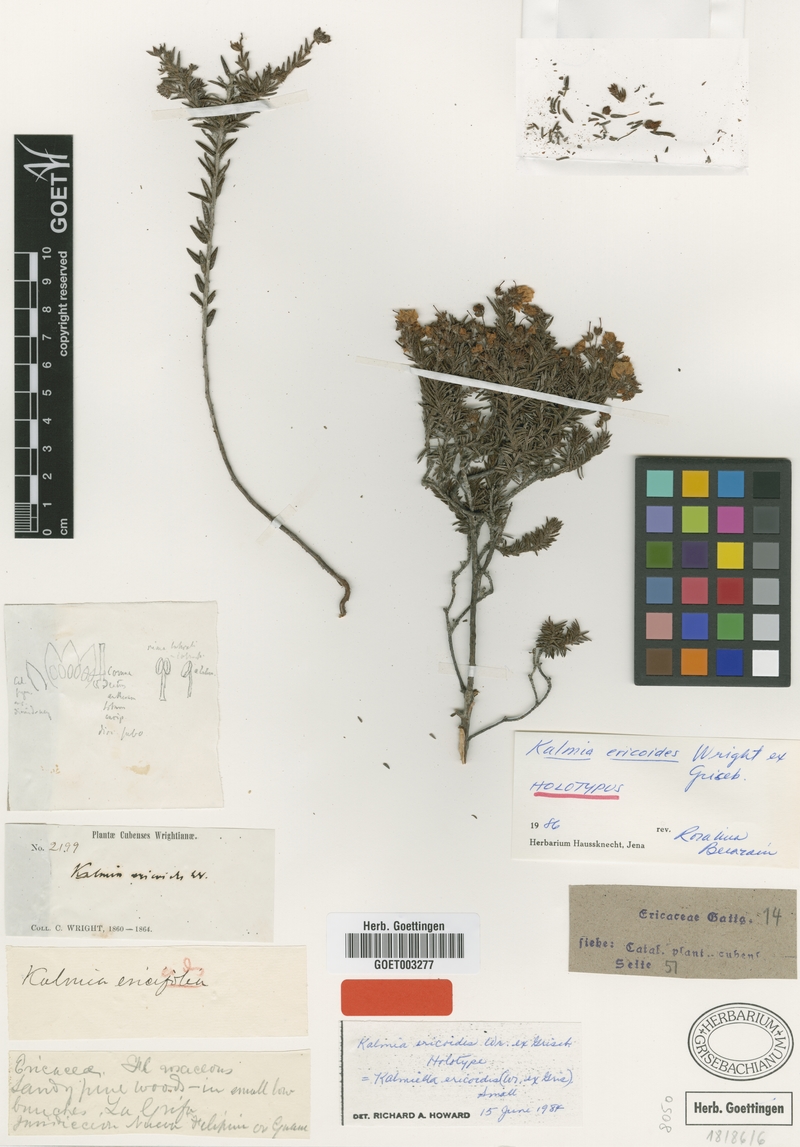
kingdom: Plantae
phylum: Tracheophyta
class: Magnoliopsida
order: Ericales
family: Ericaceae
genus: Kalmia
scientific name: Kalmia ericoides
